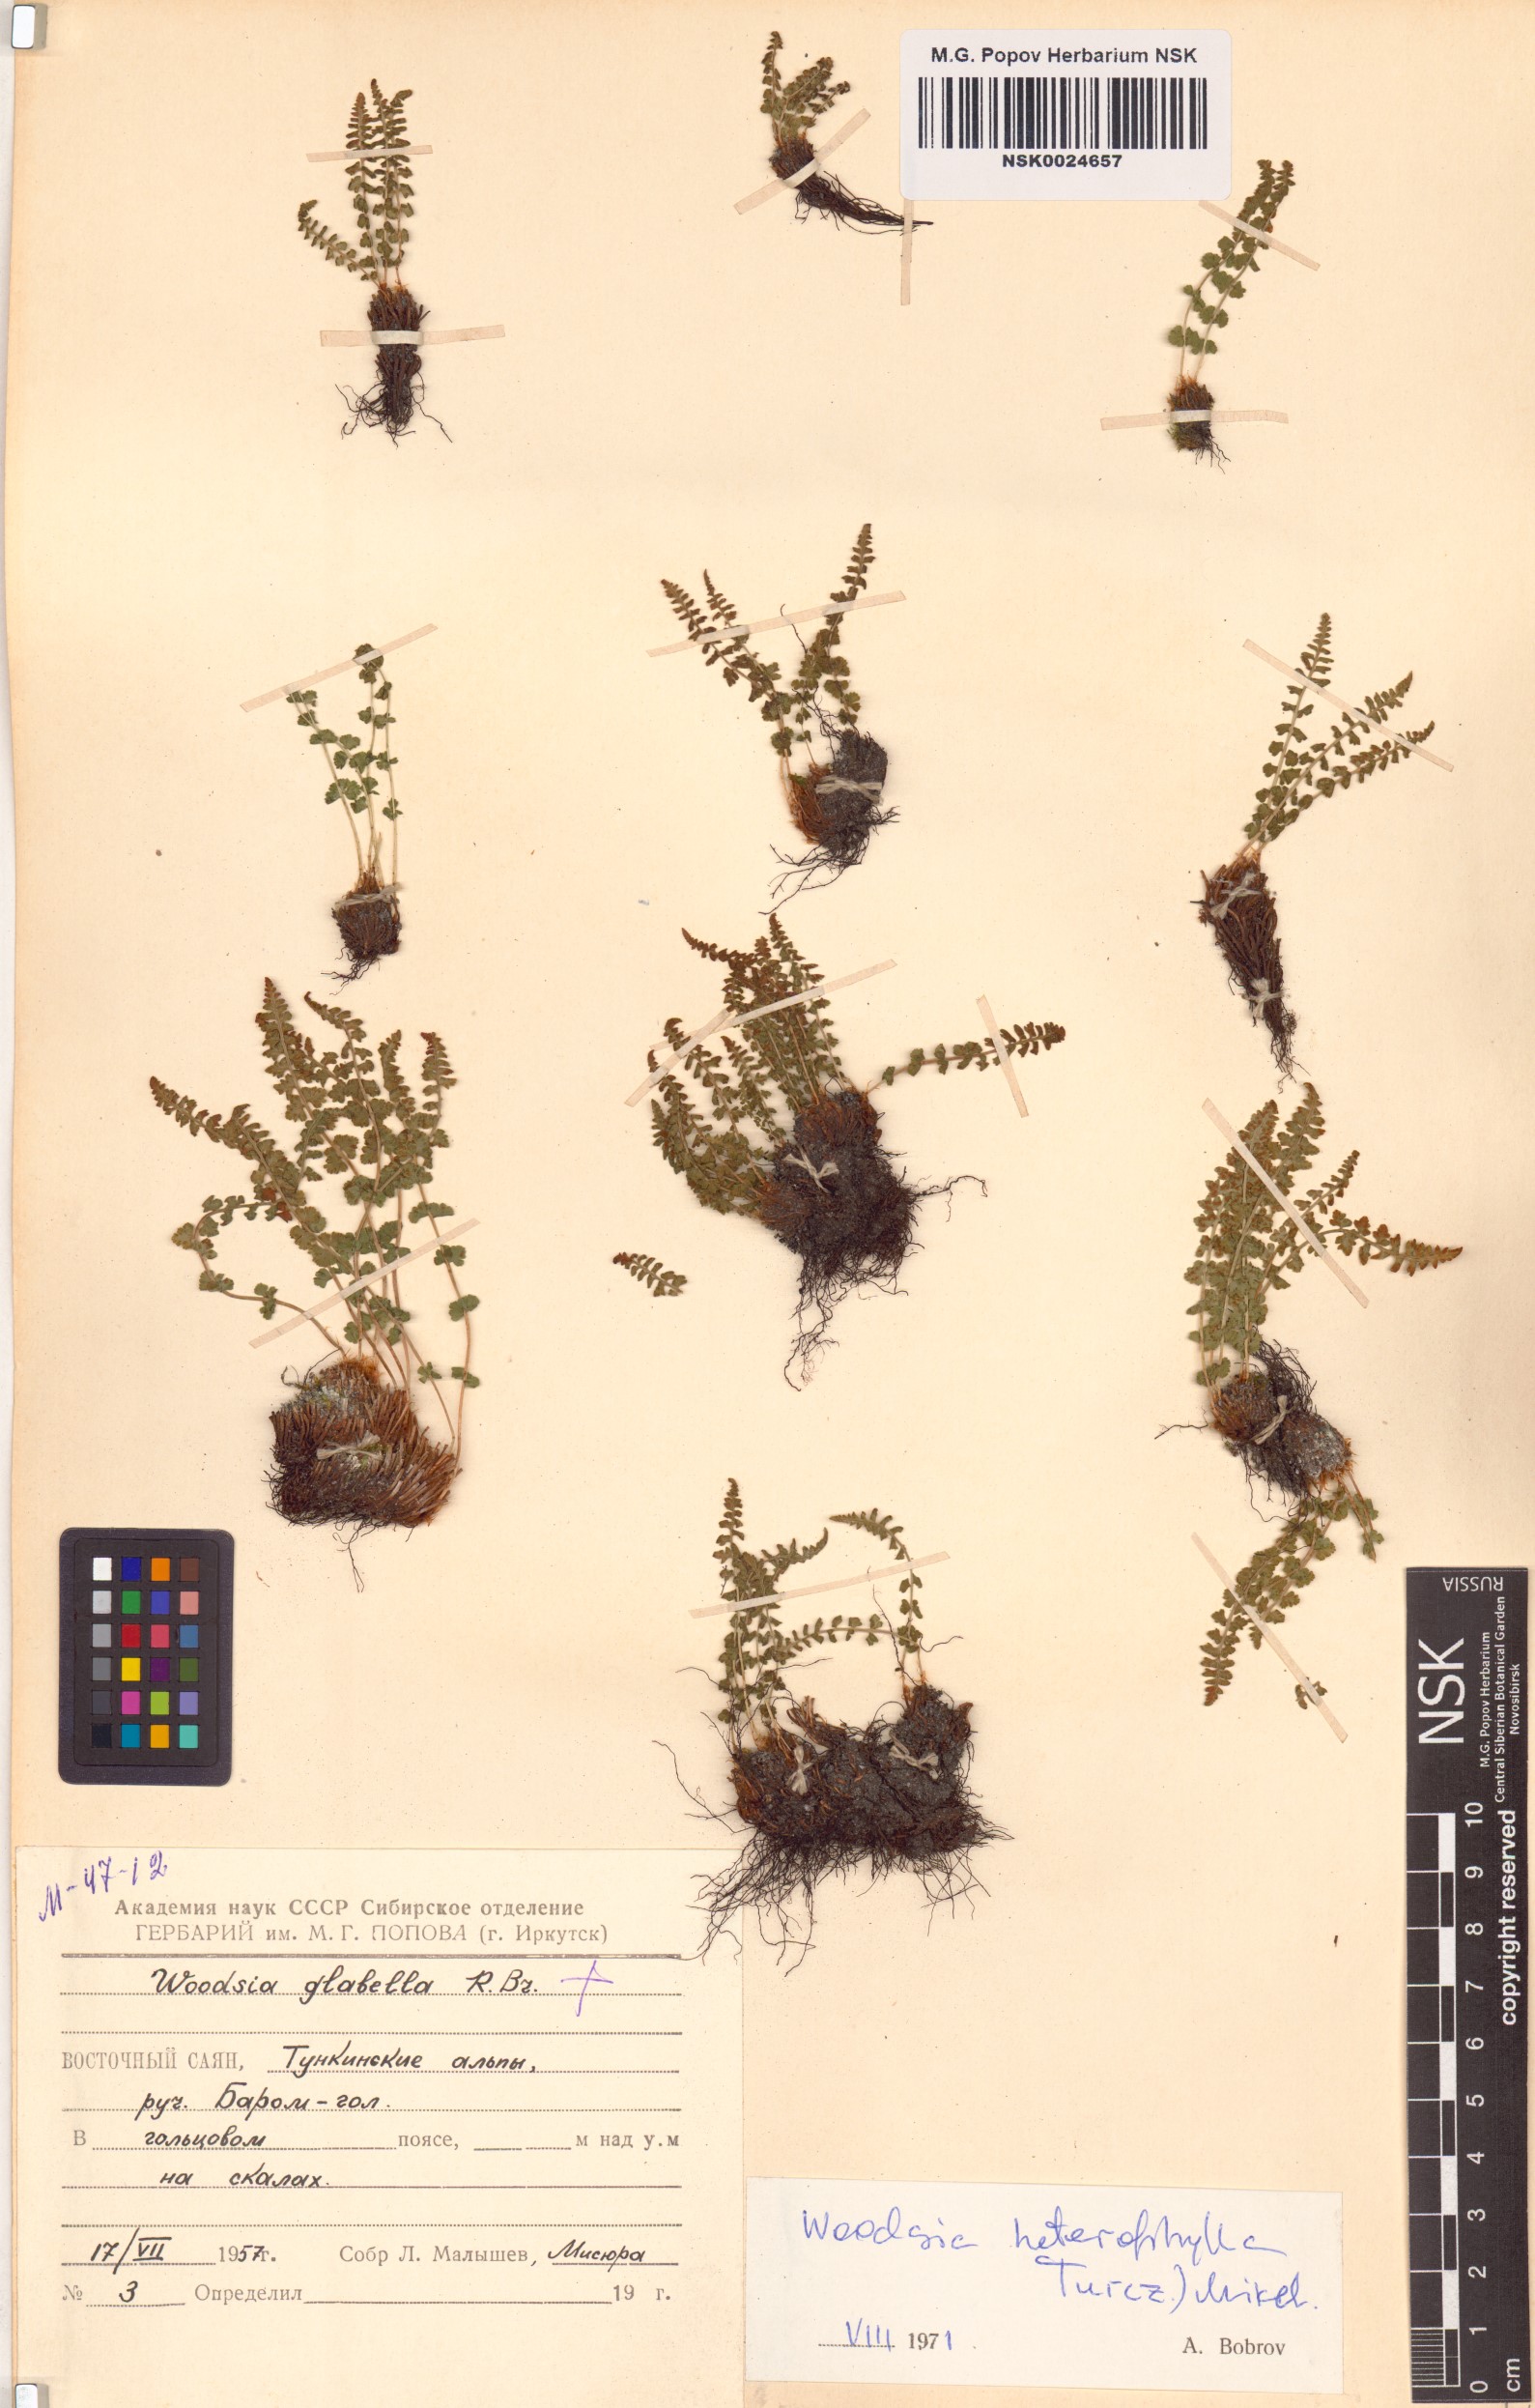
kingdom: Plantae
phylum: Tracheophyta
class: Polypodiopsida
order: Polypodiales
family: Woodsiaceae
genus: Woodsia
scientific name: Woodsia pulchella
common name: Graceful woodsia
